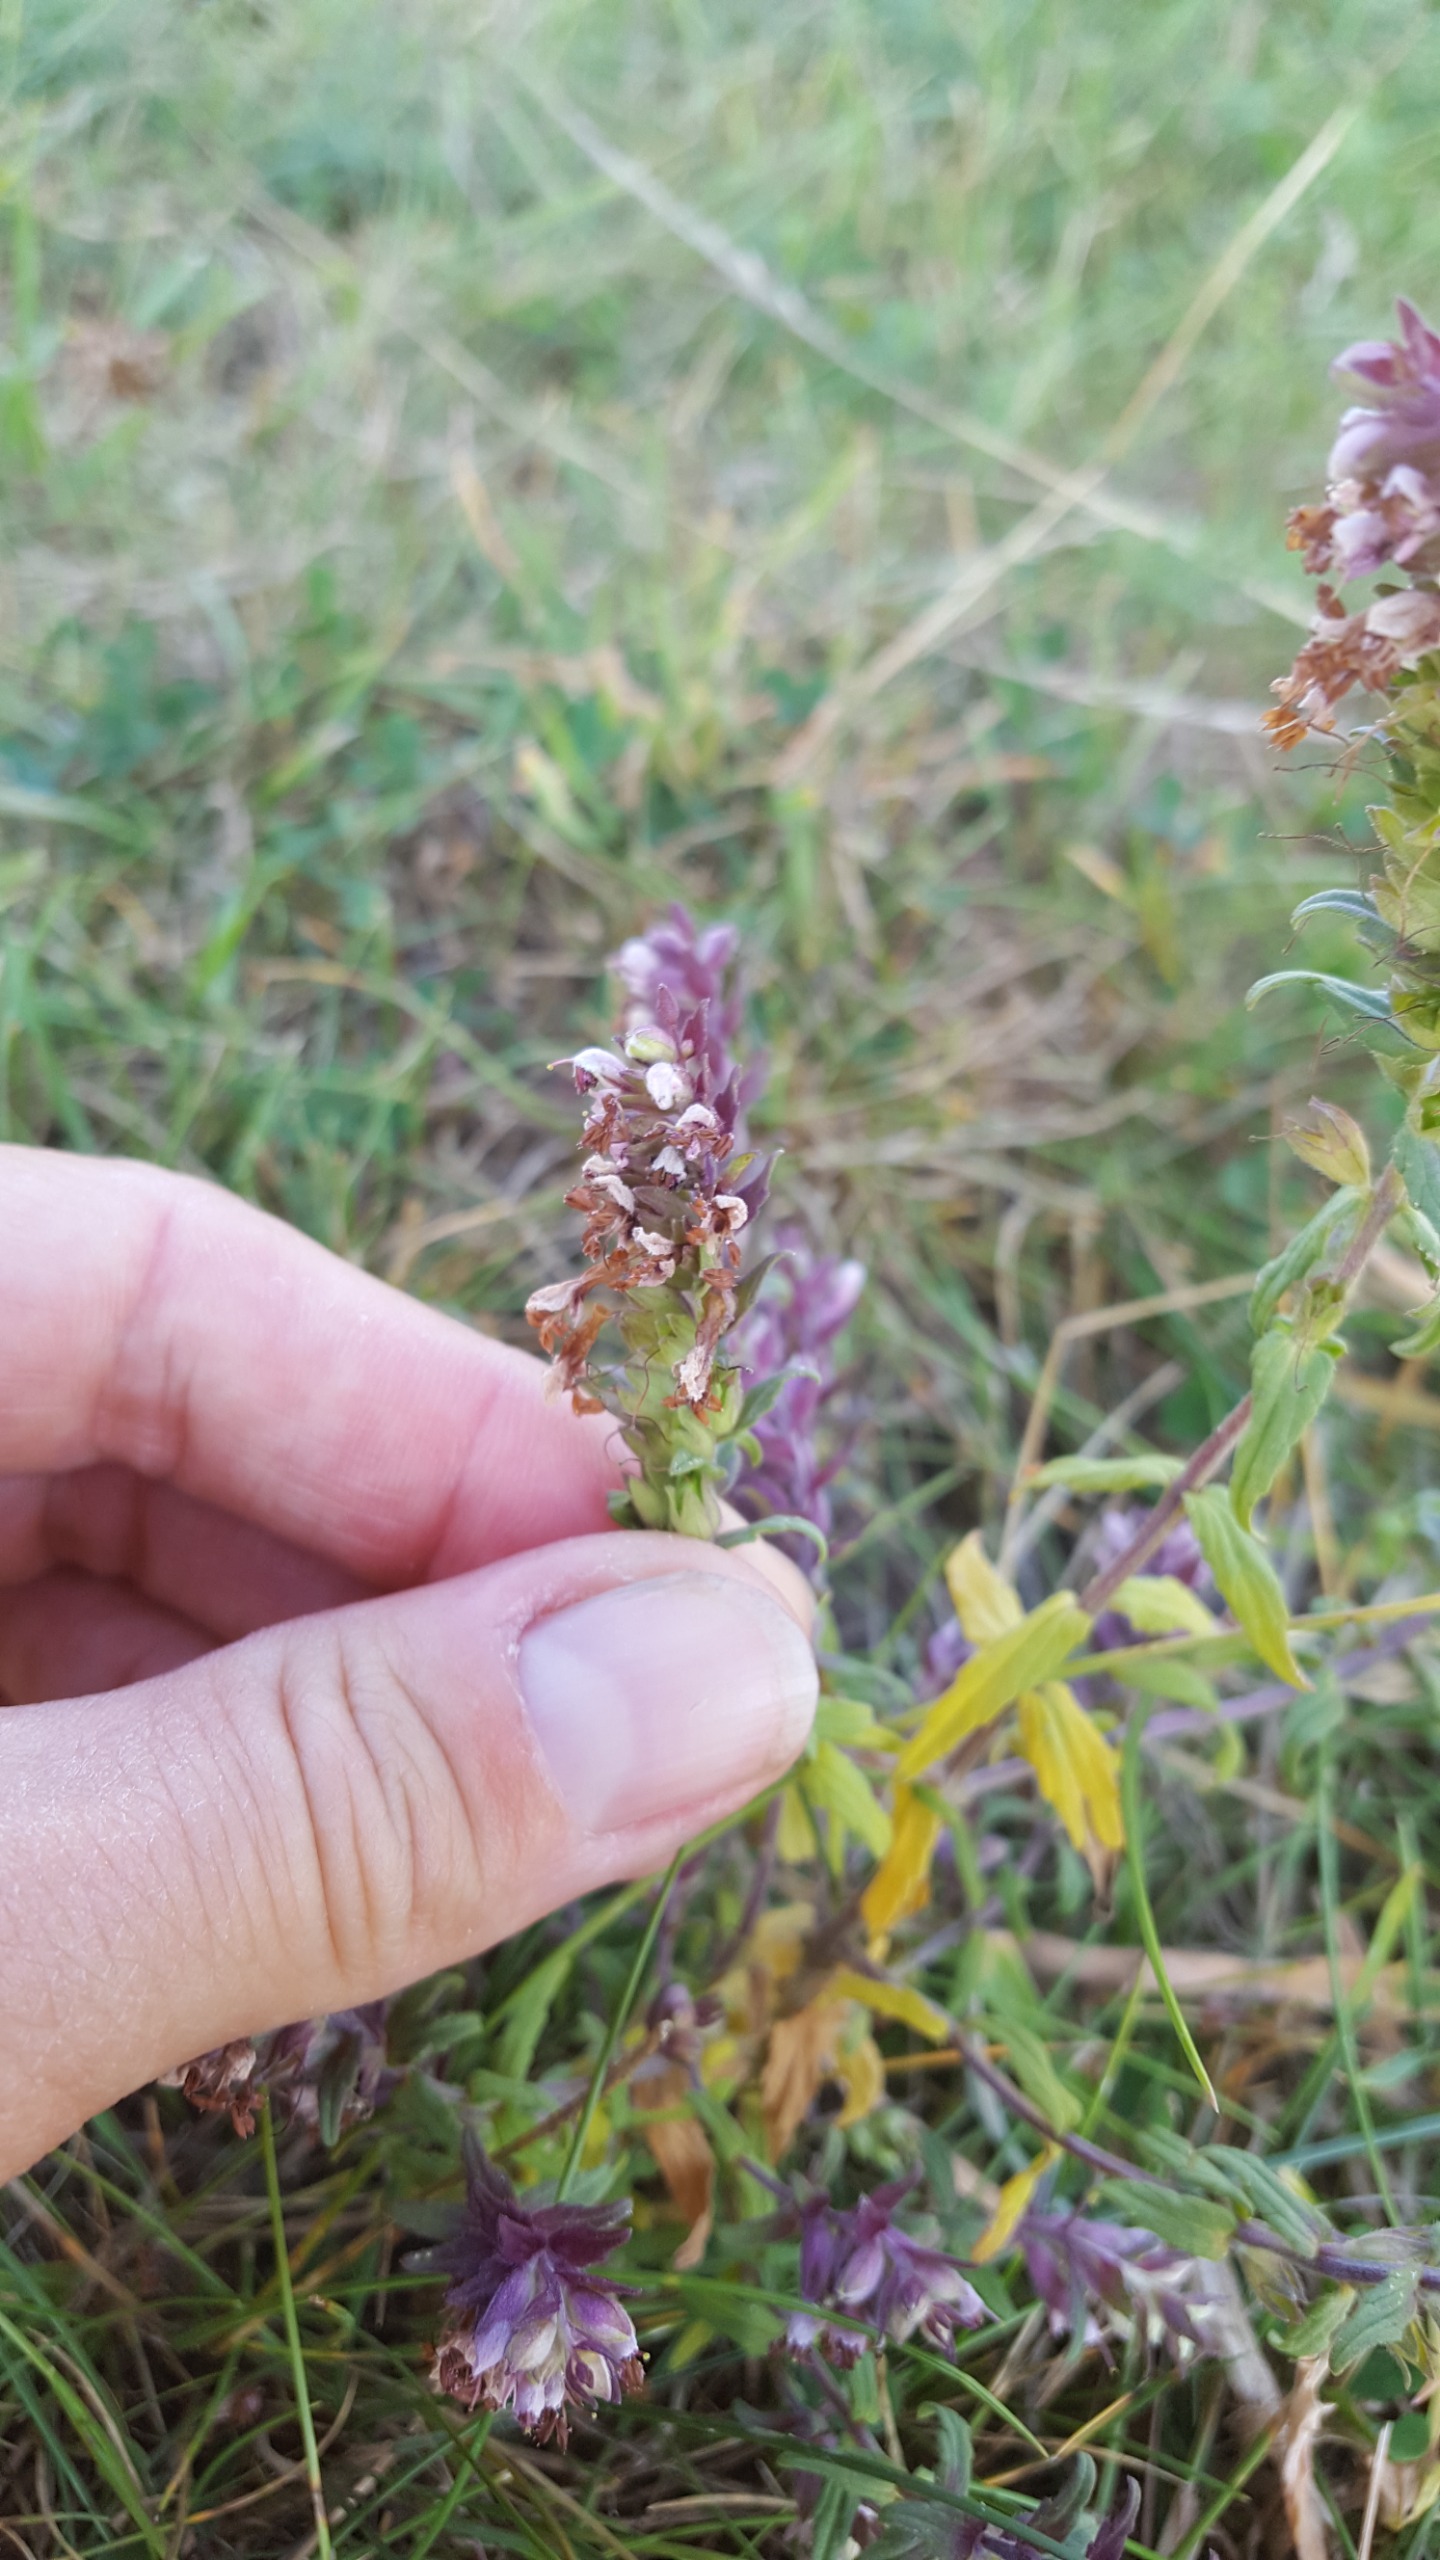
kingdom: Plantae
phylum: Tracheophyta
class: Magnoliopsida
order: Lamiales
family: Orobanchaceae
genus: Odontites
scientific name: Odontites vulgaris
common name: Høst-rødtop
